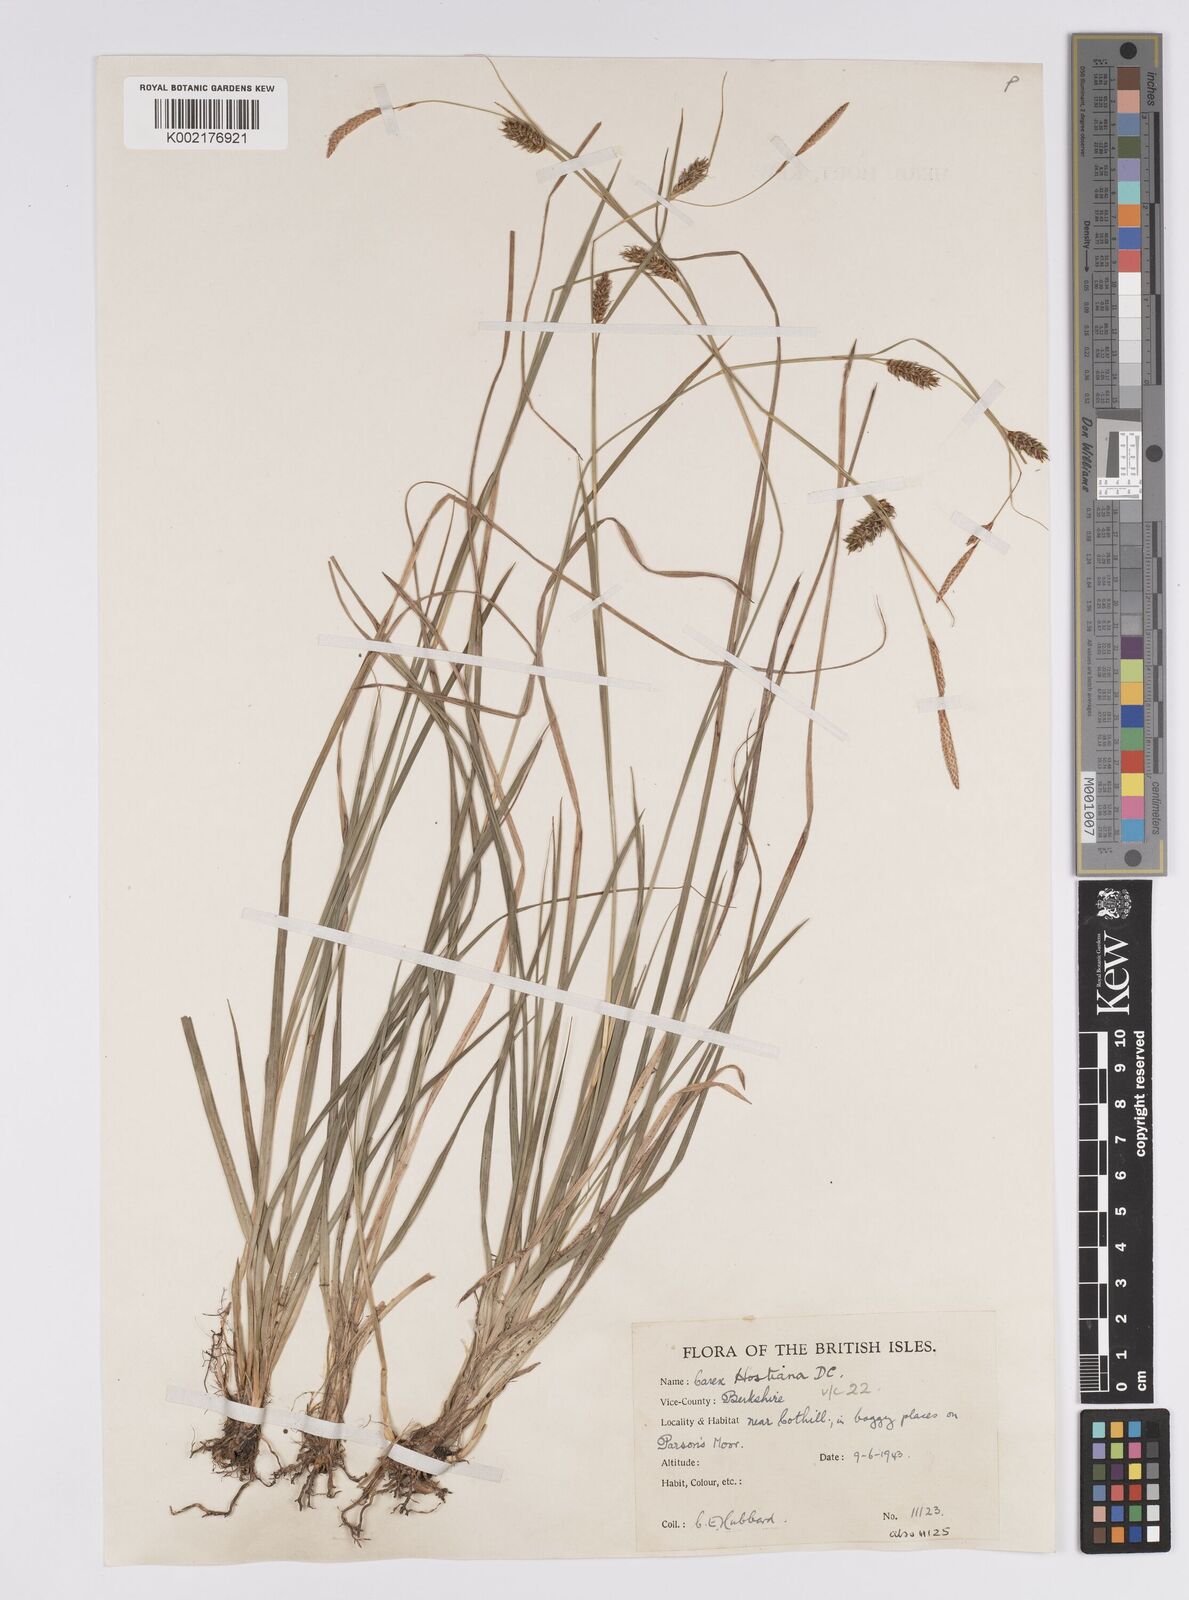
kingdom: Plantae
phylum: Tracheophyta
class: Liliopsida
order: Poales
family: Cyperaceae
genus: Carex
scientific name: Carex hostiana
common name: Tawny sedge
